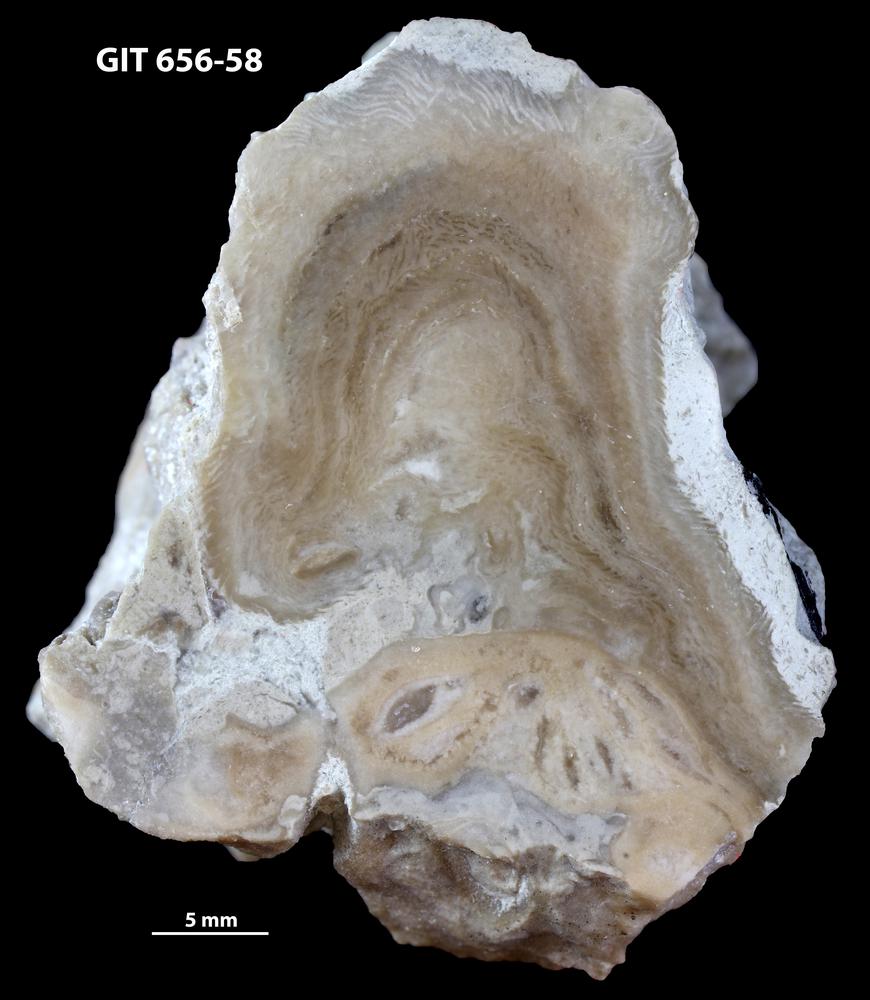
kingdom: Animalia
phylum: Cnidaria
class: Anthozoa
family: Alveolitidae
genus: Kitakamiia
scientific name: Kitakamiia
